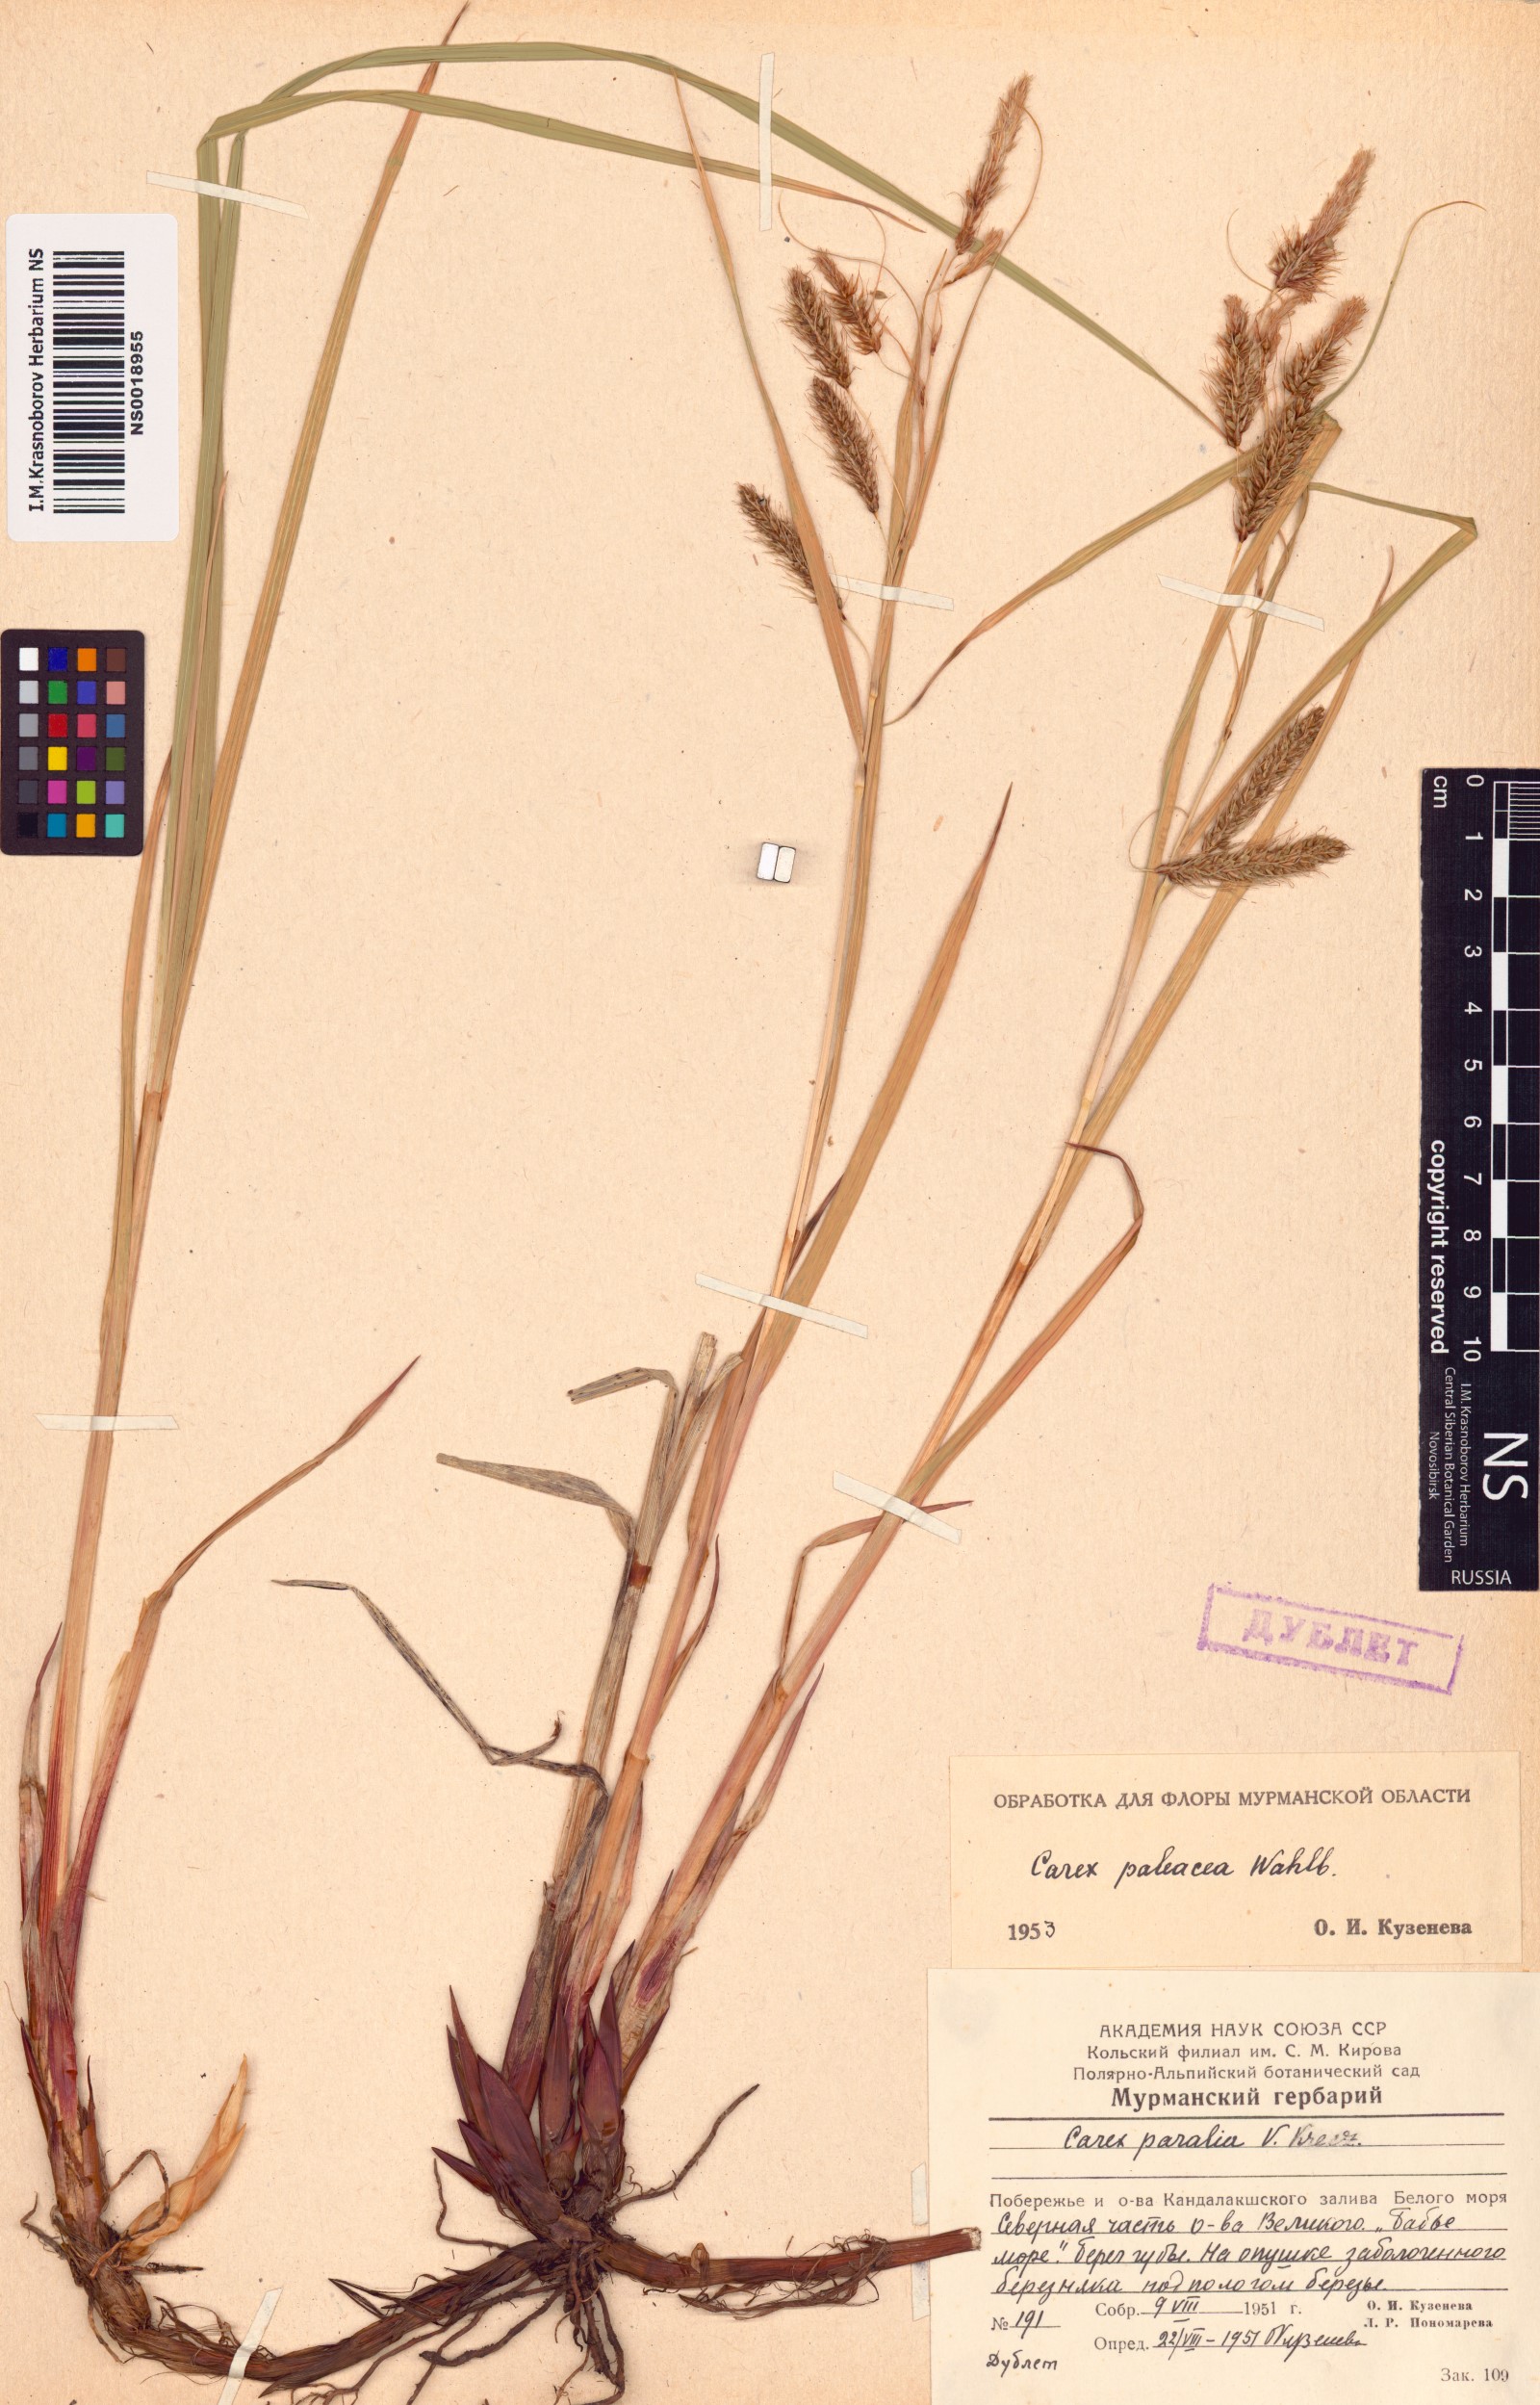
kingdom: Plantae
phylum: Tracheophyta
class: Liliopsida
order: Poales
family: Cyperaceae
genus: Carex
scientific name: Carex paleacea
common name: Chaffy sedge
